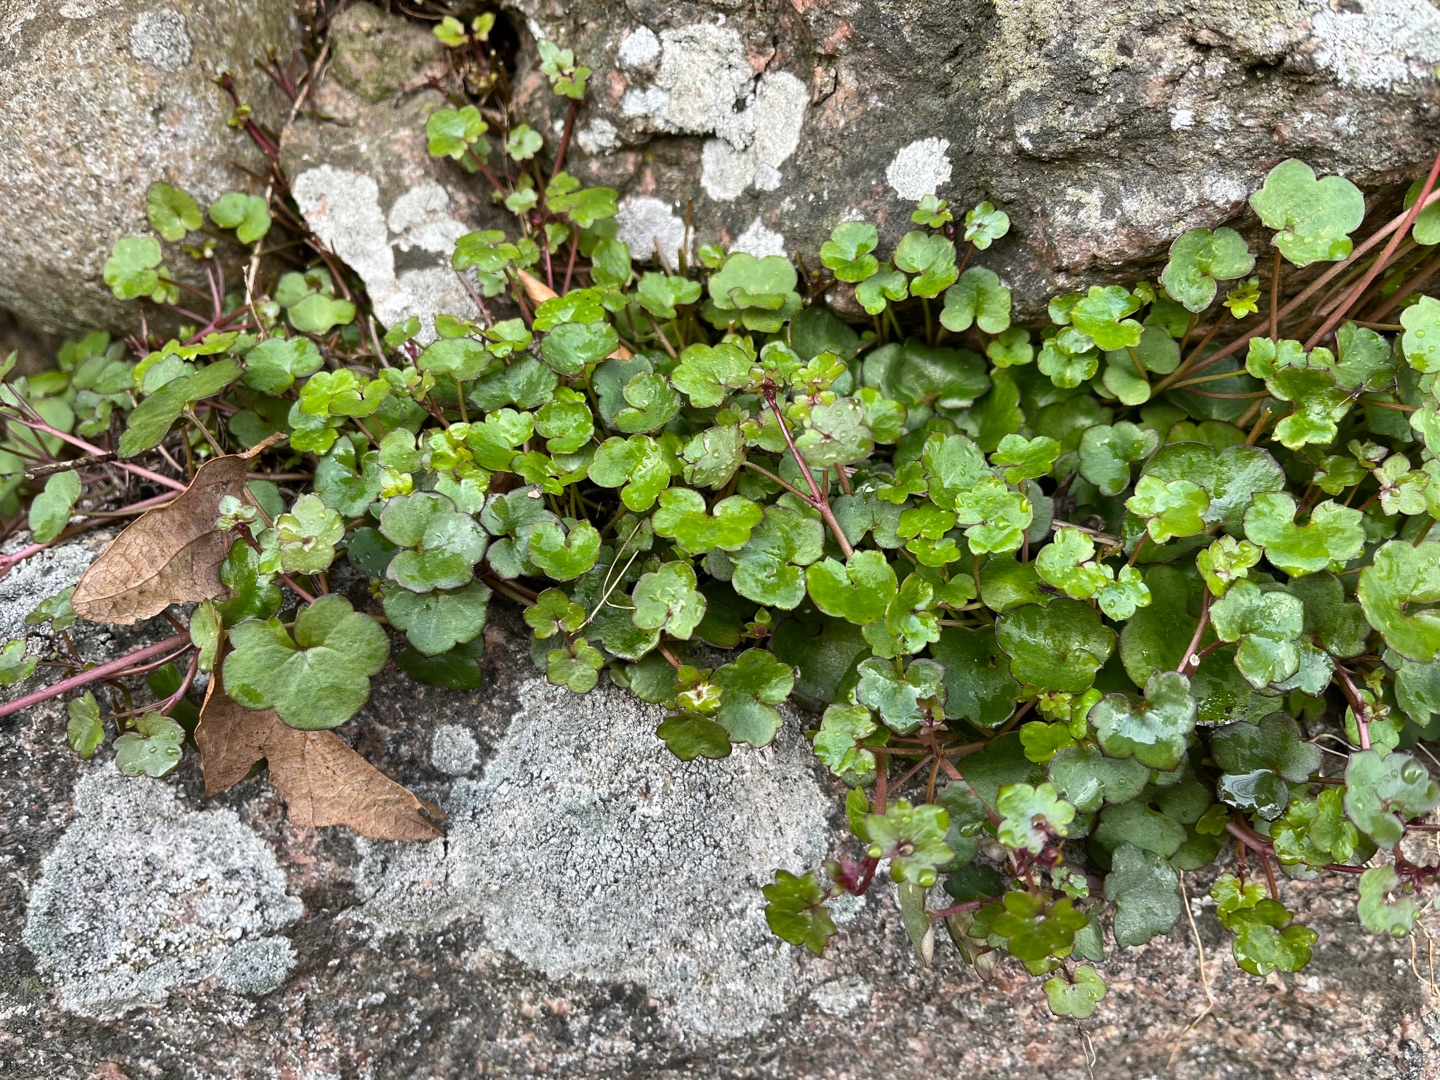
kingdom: Plantae
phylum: Tracheophyta
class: Magnoliopsida
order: Lamiales
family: Plantaginaceae
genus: Cymbalaria
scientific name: Cymbalaria muralis
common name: Vedbend-torskemund
